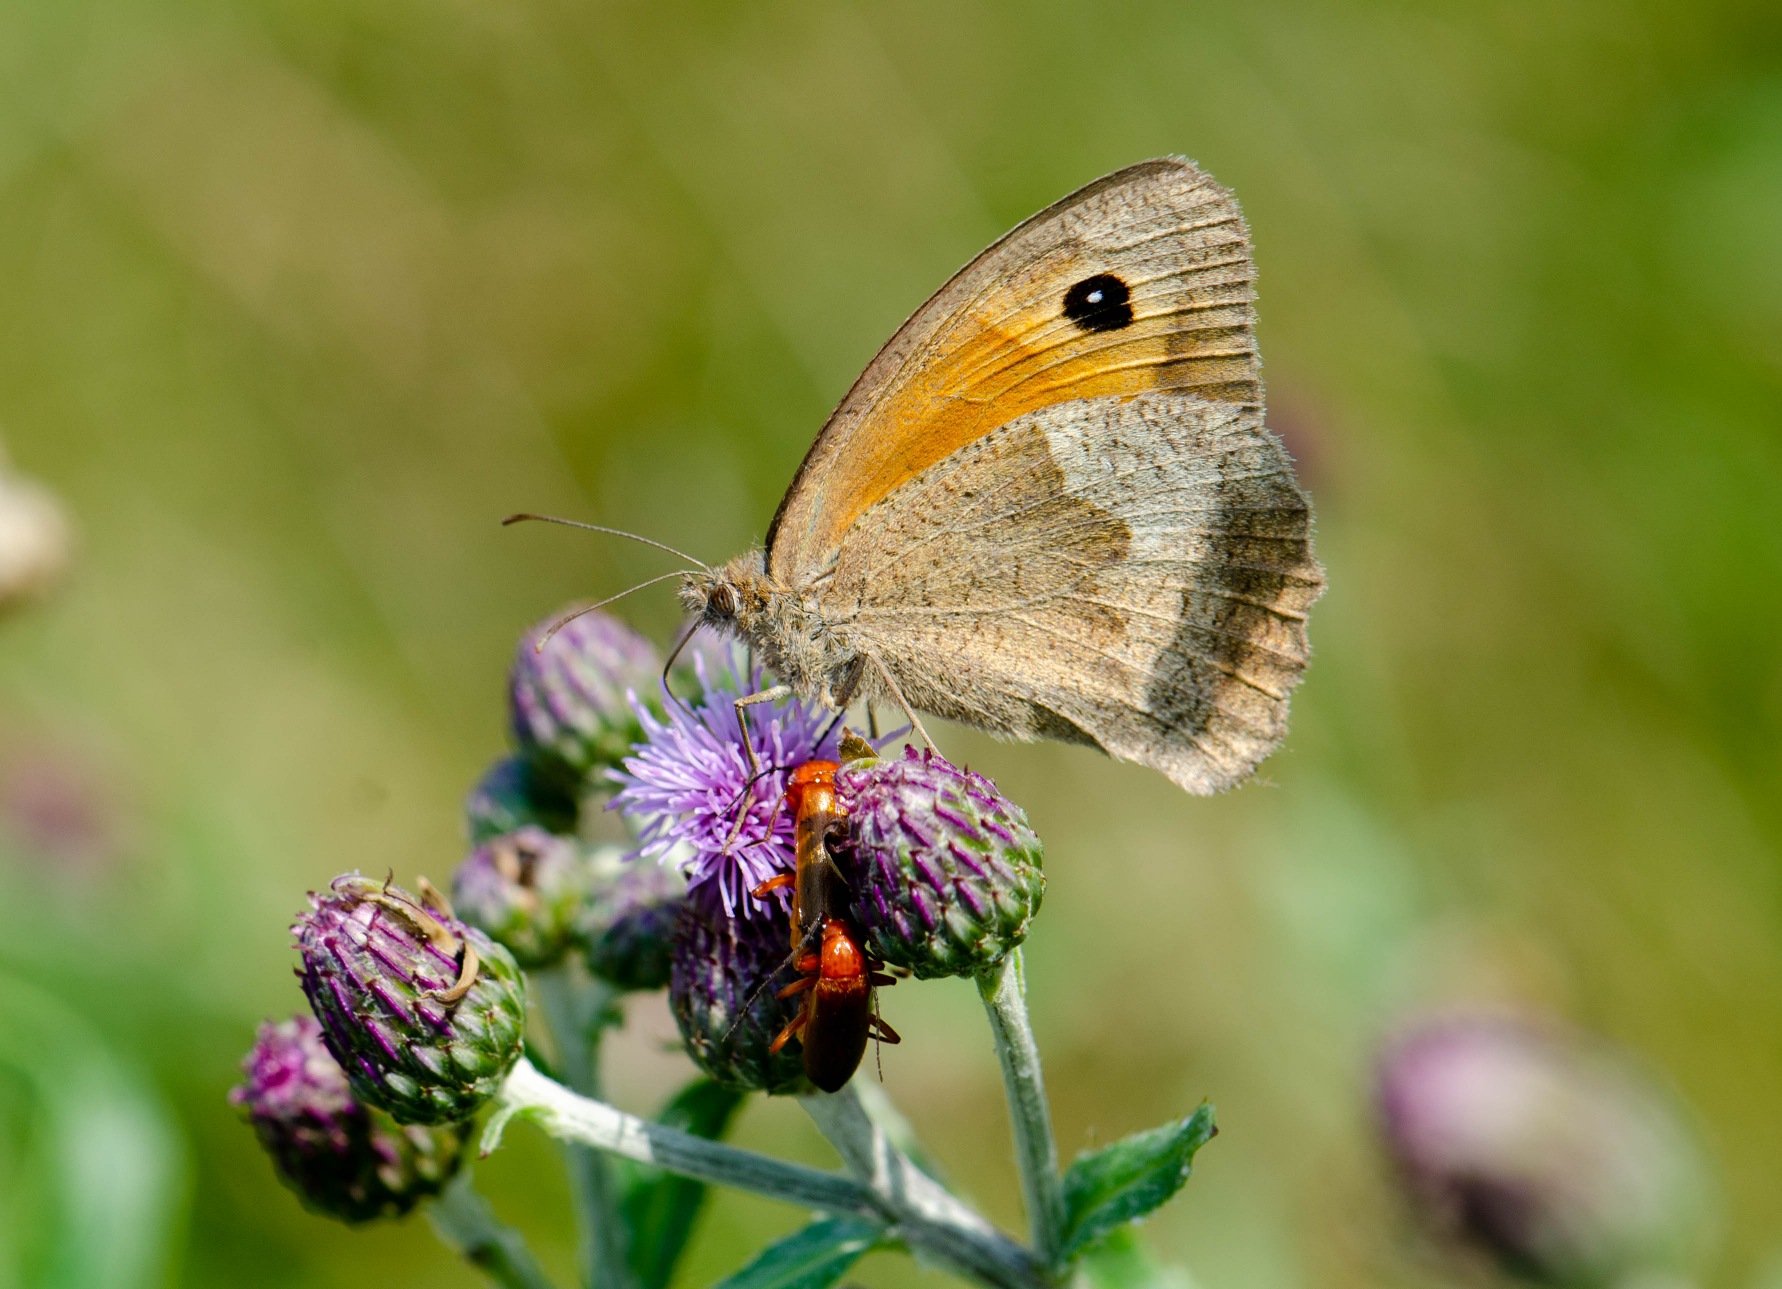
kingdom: Animalia
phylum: Arthropoda
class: Insecta
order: Lepidoptera
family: Nymphalidae
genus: Maniola
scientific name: Maniola jurtina
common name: Græsrandøje
